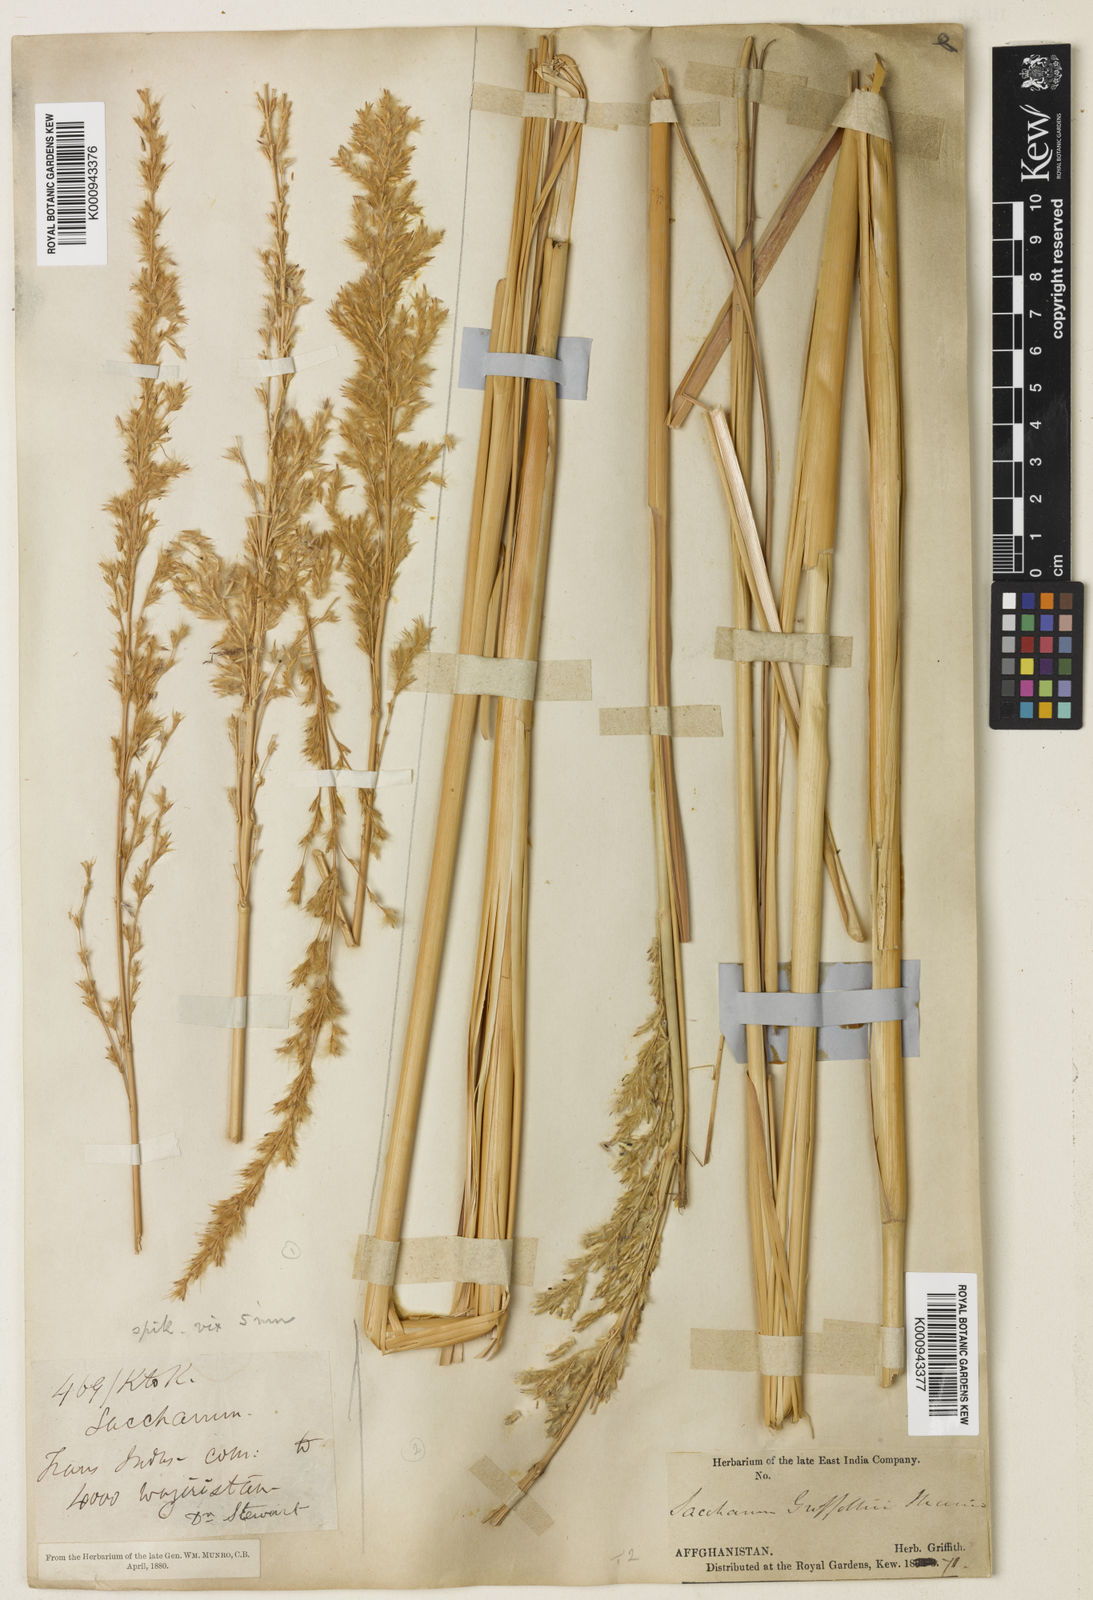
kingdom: Plantae
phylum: Tracheophyta
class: Liliopsida
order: Poales
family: Poaceae
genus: Saccharum
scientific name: Saccharum griffithii
